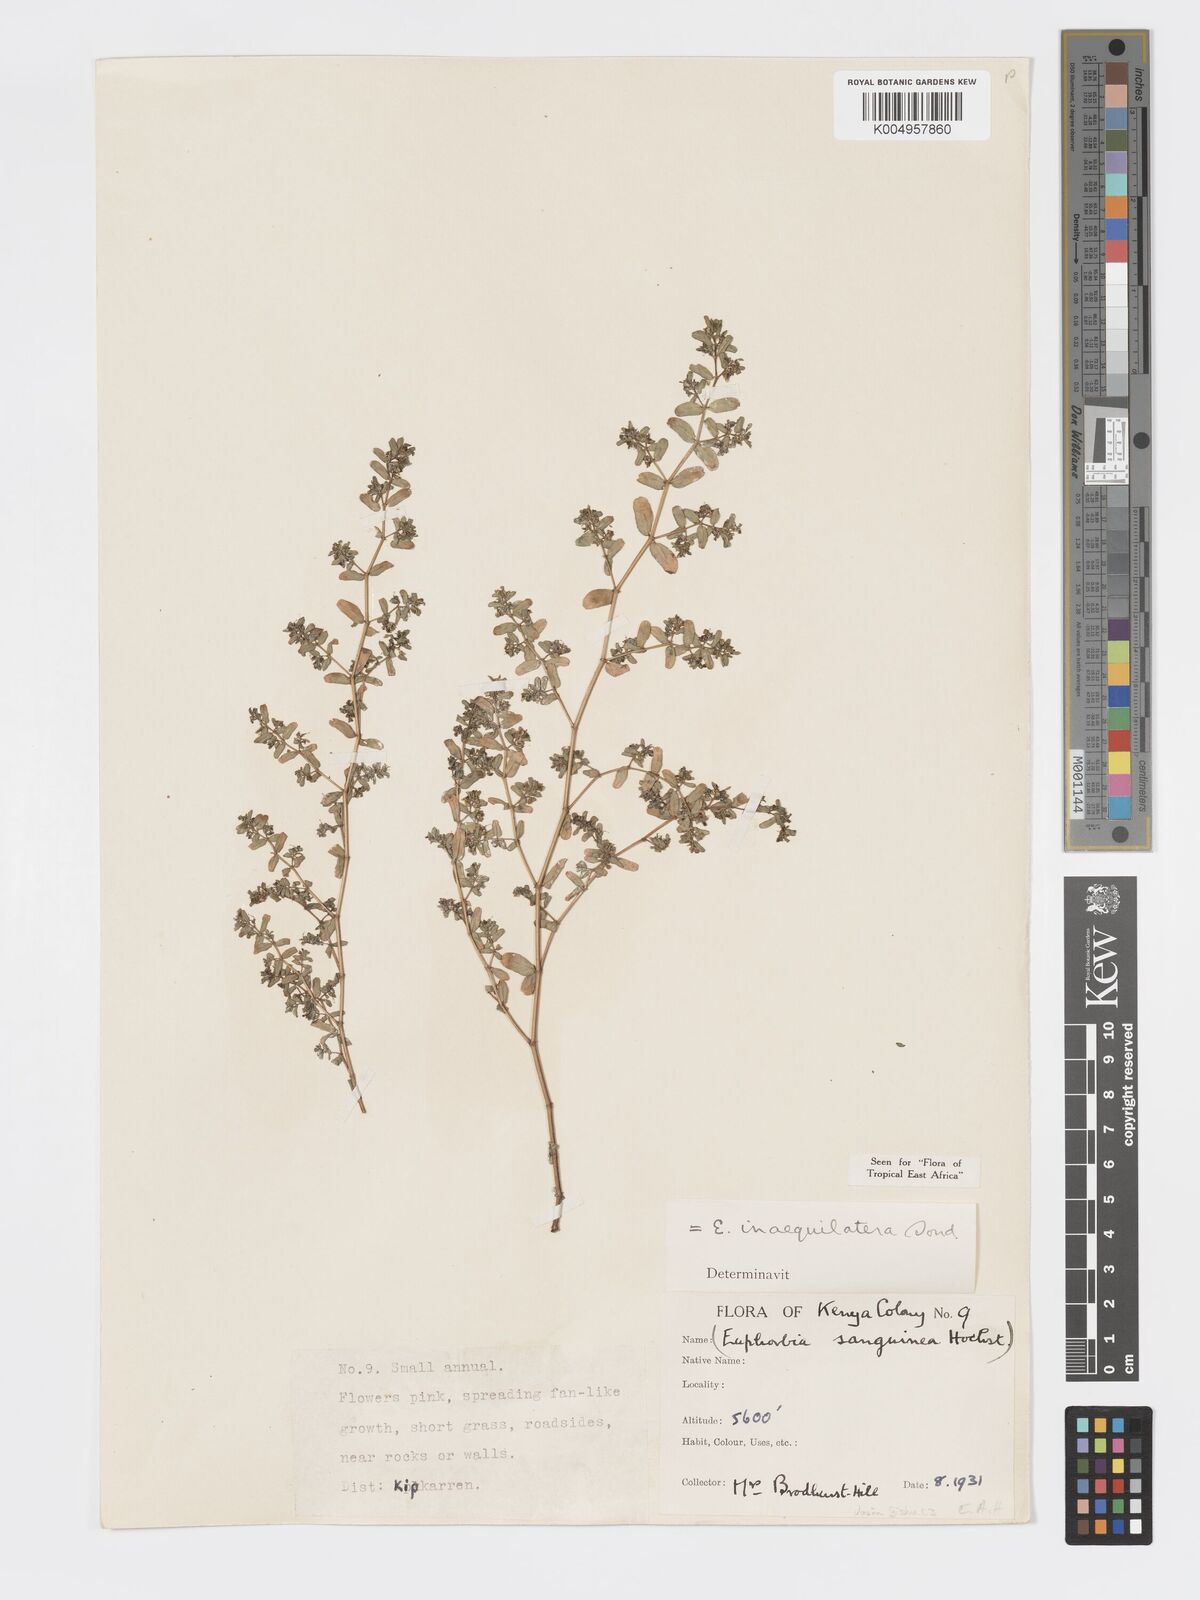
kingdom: Plantae
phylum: Tracheophyta
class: Magnoliopsida
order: Malpighiales
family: Euphorbiaceae
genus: Euphorbia
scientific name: Euphorbia inaequilatera
